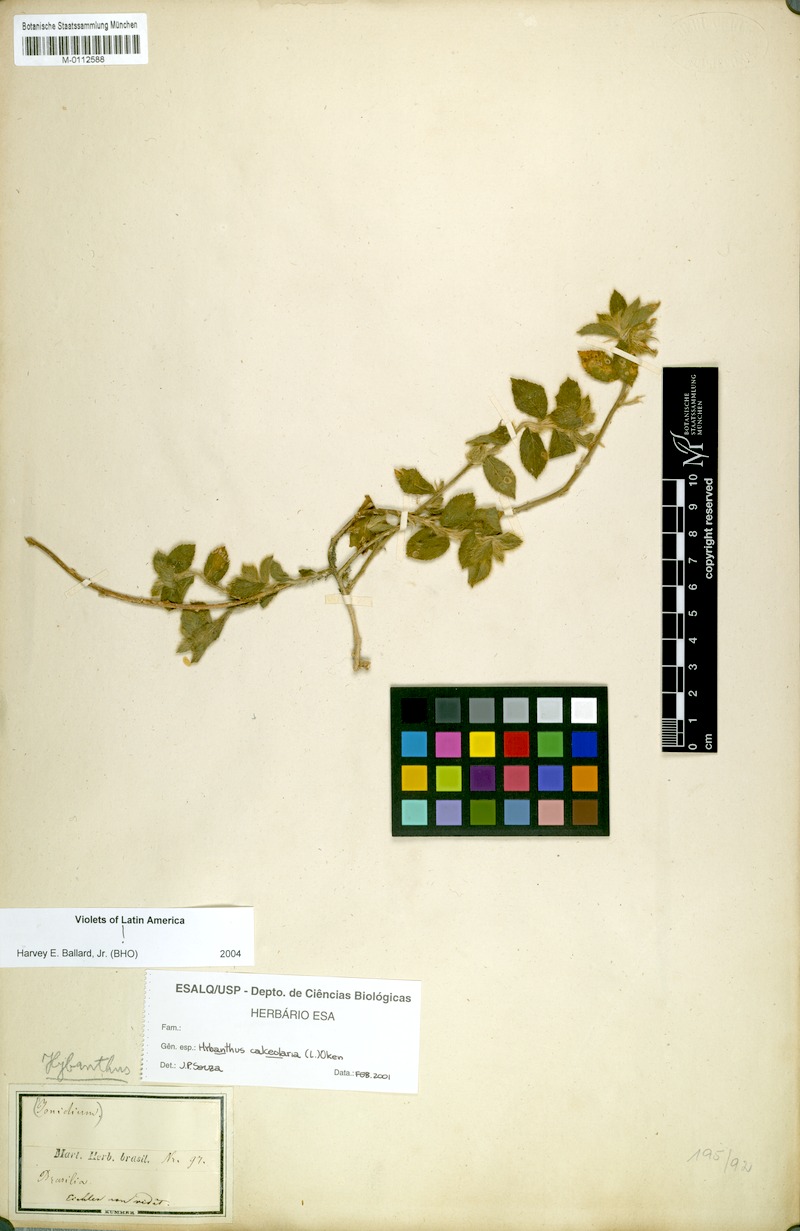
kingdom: Plantae
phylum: Tracheophyta
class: Magnoliopsida
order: Malpighiales
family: Violaceae
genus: Pombalia
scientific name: Pombalia calceolaria
